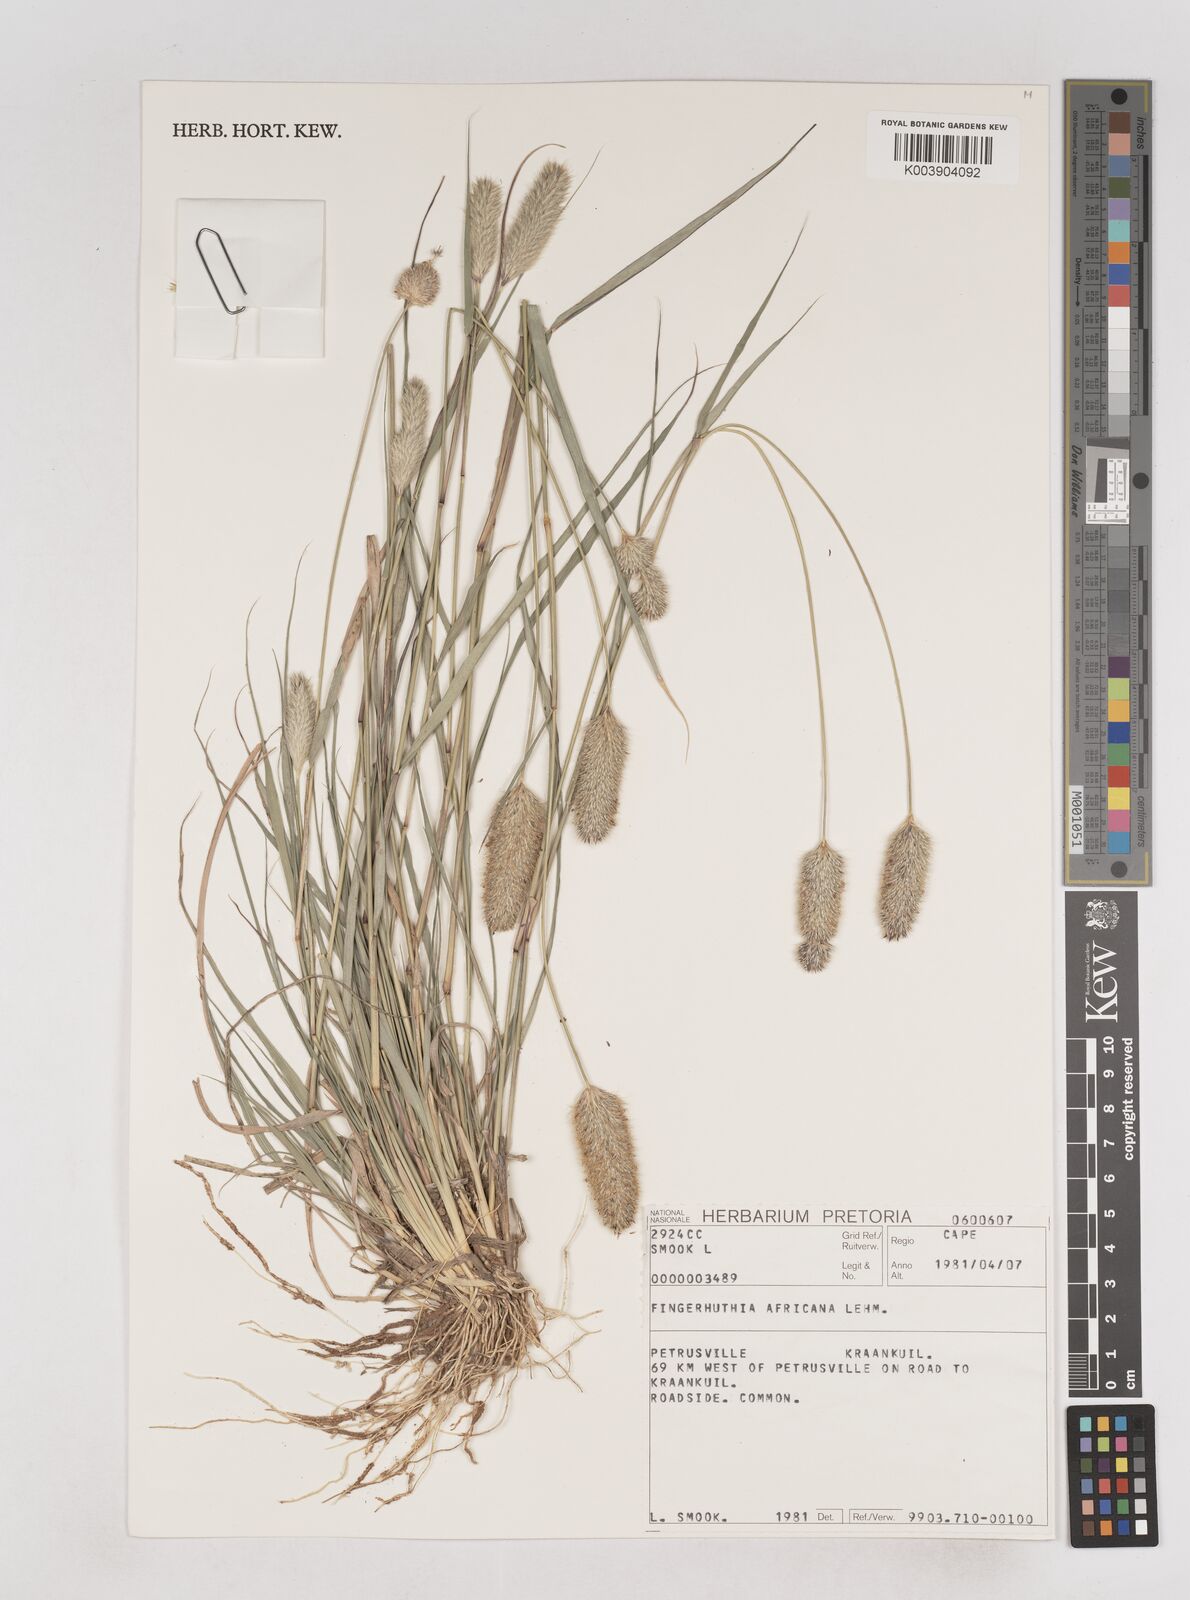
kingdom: Plantae
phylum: Tracheophyta
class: Liliopsida
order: Poales
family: Poaceae
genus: Fingerhuthia
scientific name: Fingerhuthia africana
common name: Zulu fescue
